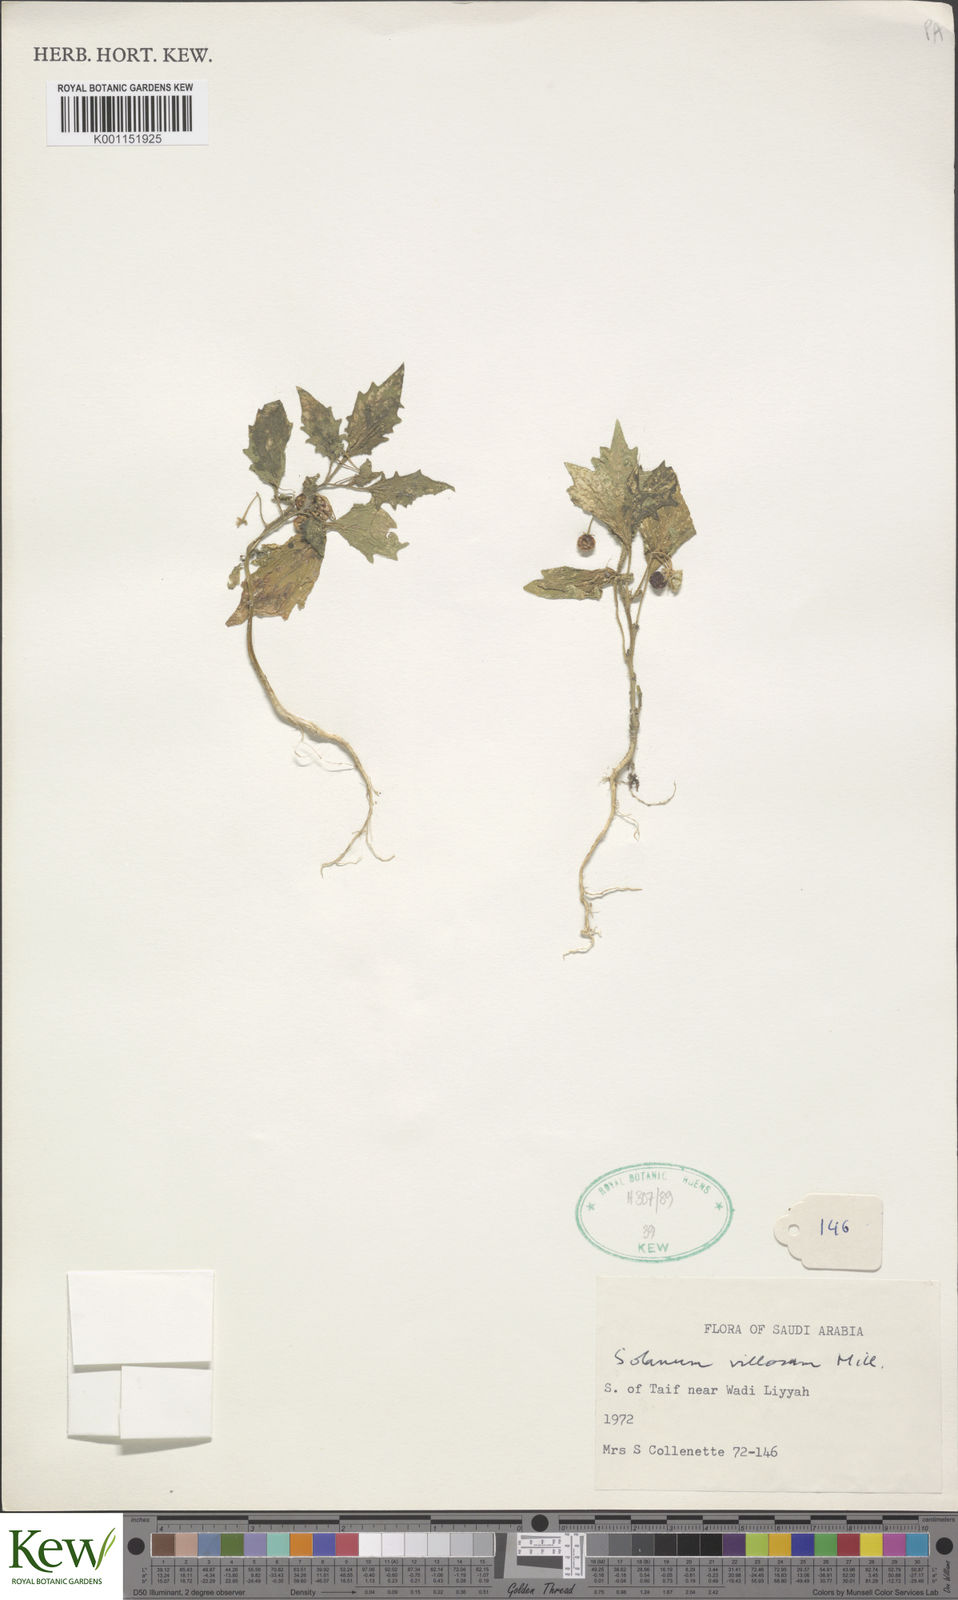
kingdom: Plantae
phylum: Tracheophyta
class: Magnoliopsida
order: Solanales
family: Solanaceae
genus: Solanum
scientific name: Solanum villosum
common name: Red nightshade
